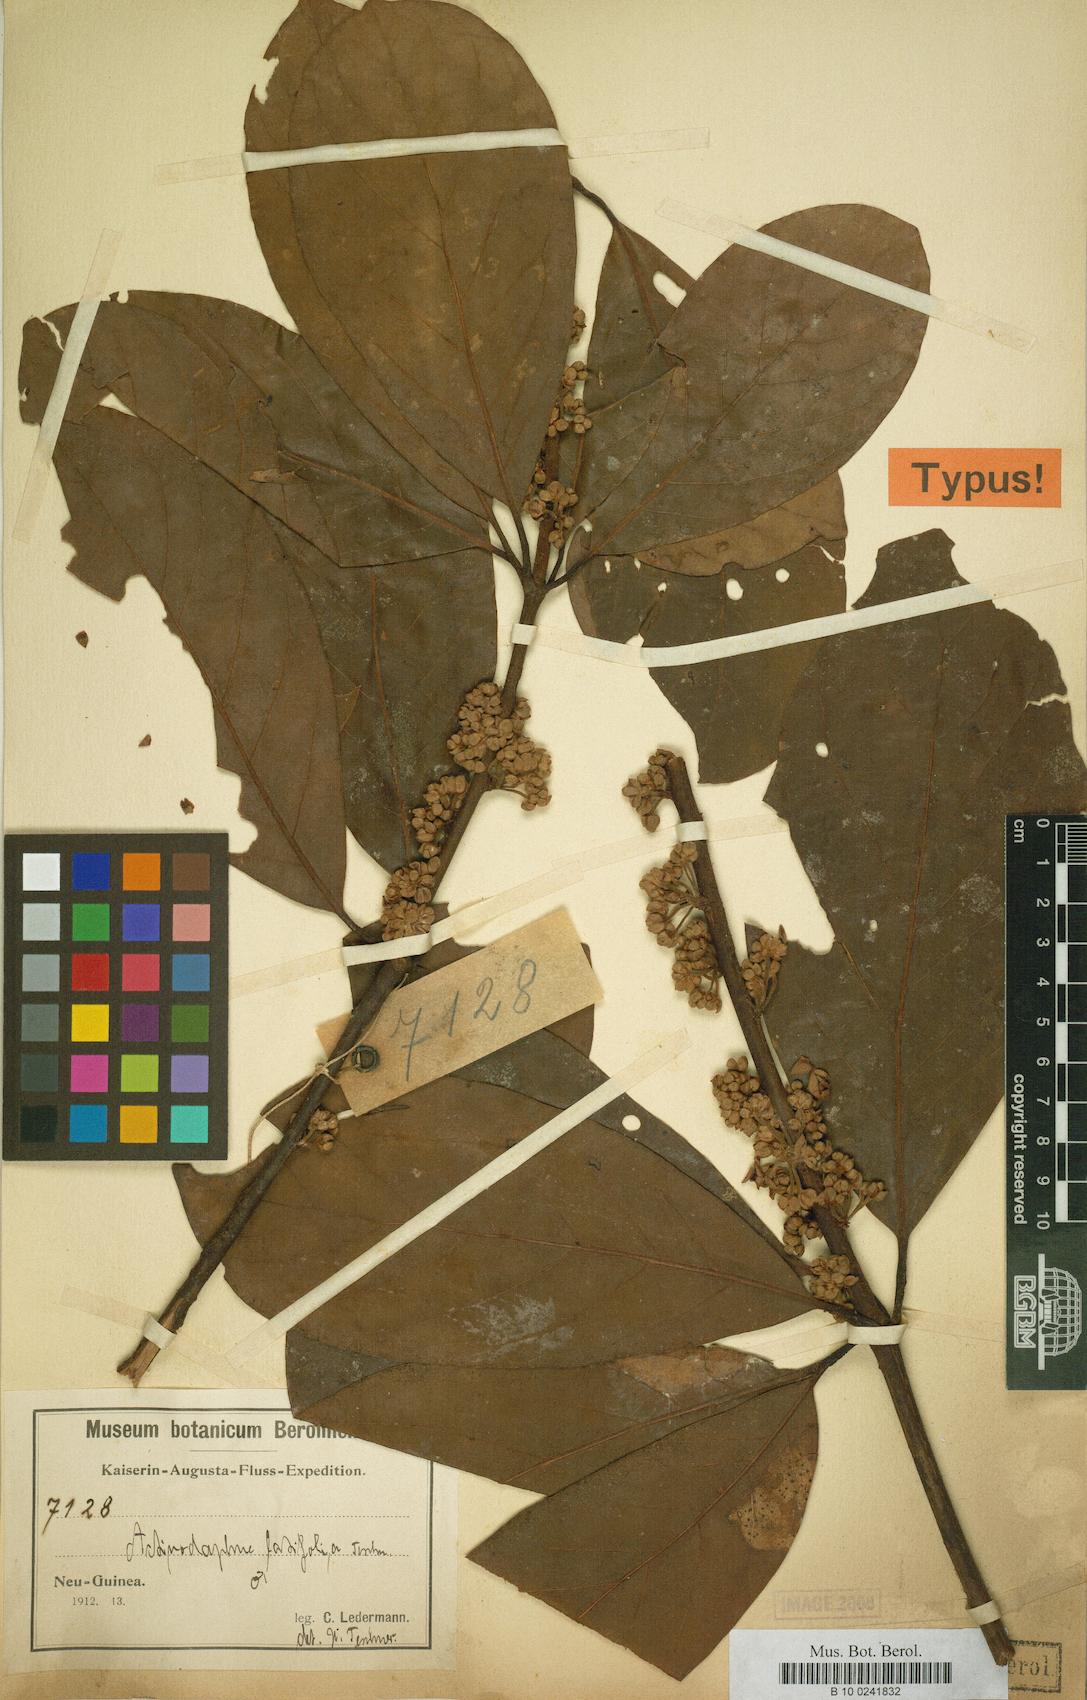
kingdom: Plantae
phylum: Tracheophyta
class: Magnoliopsida
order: Laurales
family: Lauraceae
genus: Actinodaphne
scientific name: Actinodaphne nitida
